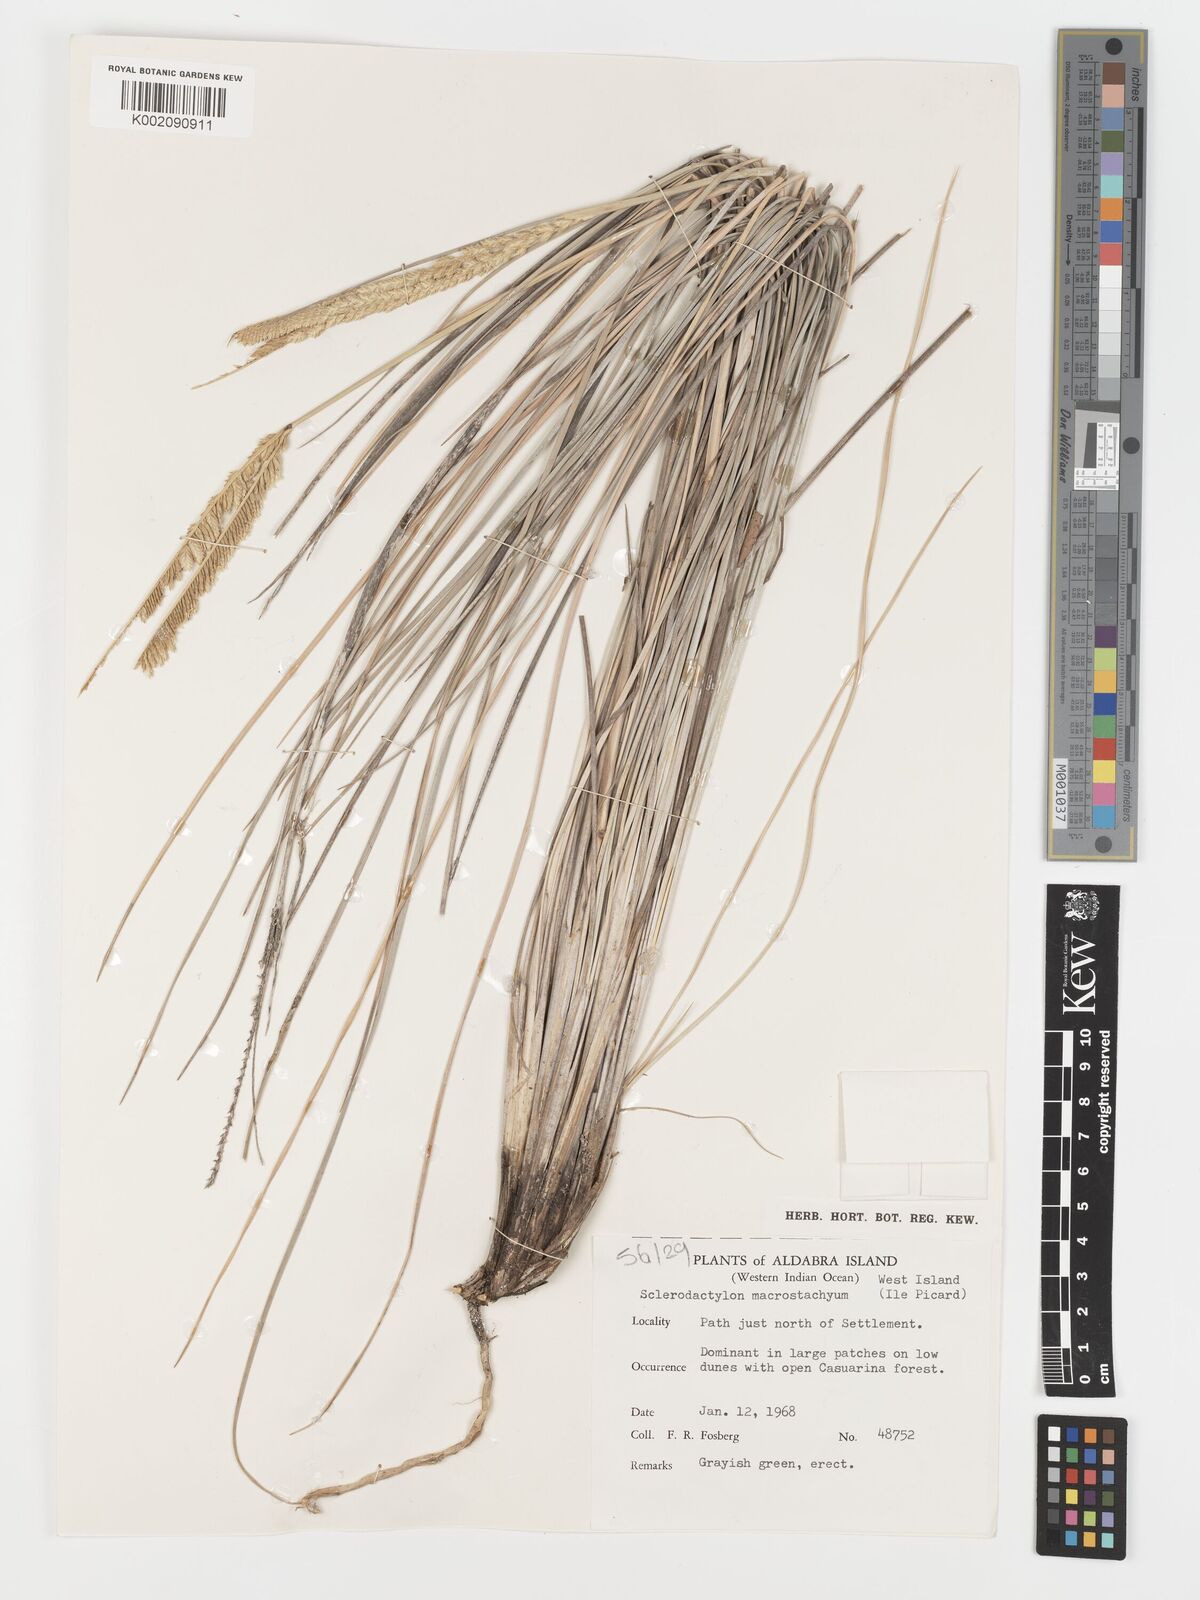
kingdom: Plantae
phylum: Tracheophyta
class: Liliopsida
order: Poales
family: Poaceae
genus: Sclerodactylon
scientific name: Sclerodactylon macrostachyum
